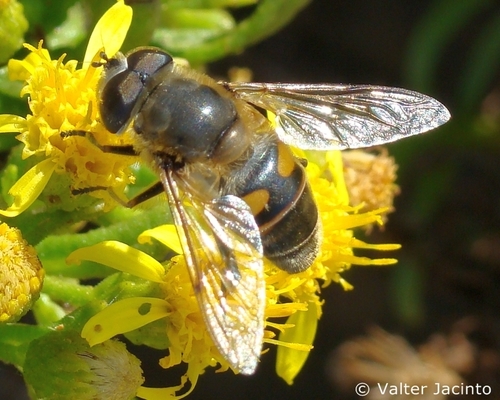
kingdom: Animalia
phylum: Arthropoda
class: Insecta
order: Diptera
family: Syrphidae
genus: Eristalis
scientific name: Eristalis tenax
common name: Drone fly
